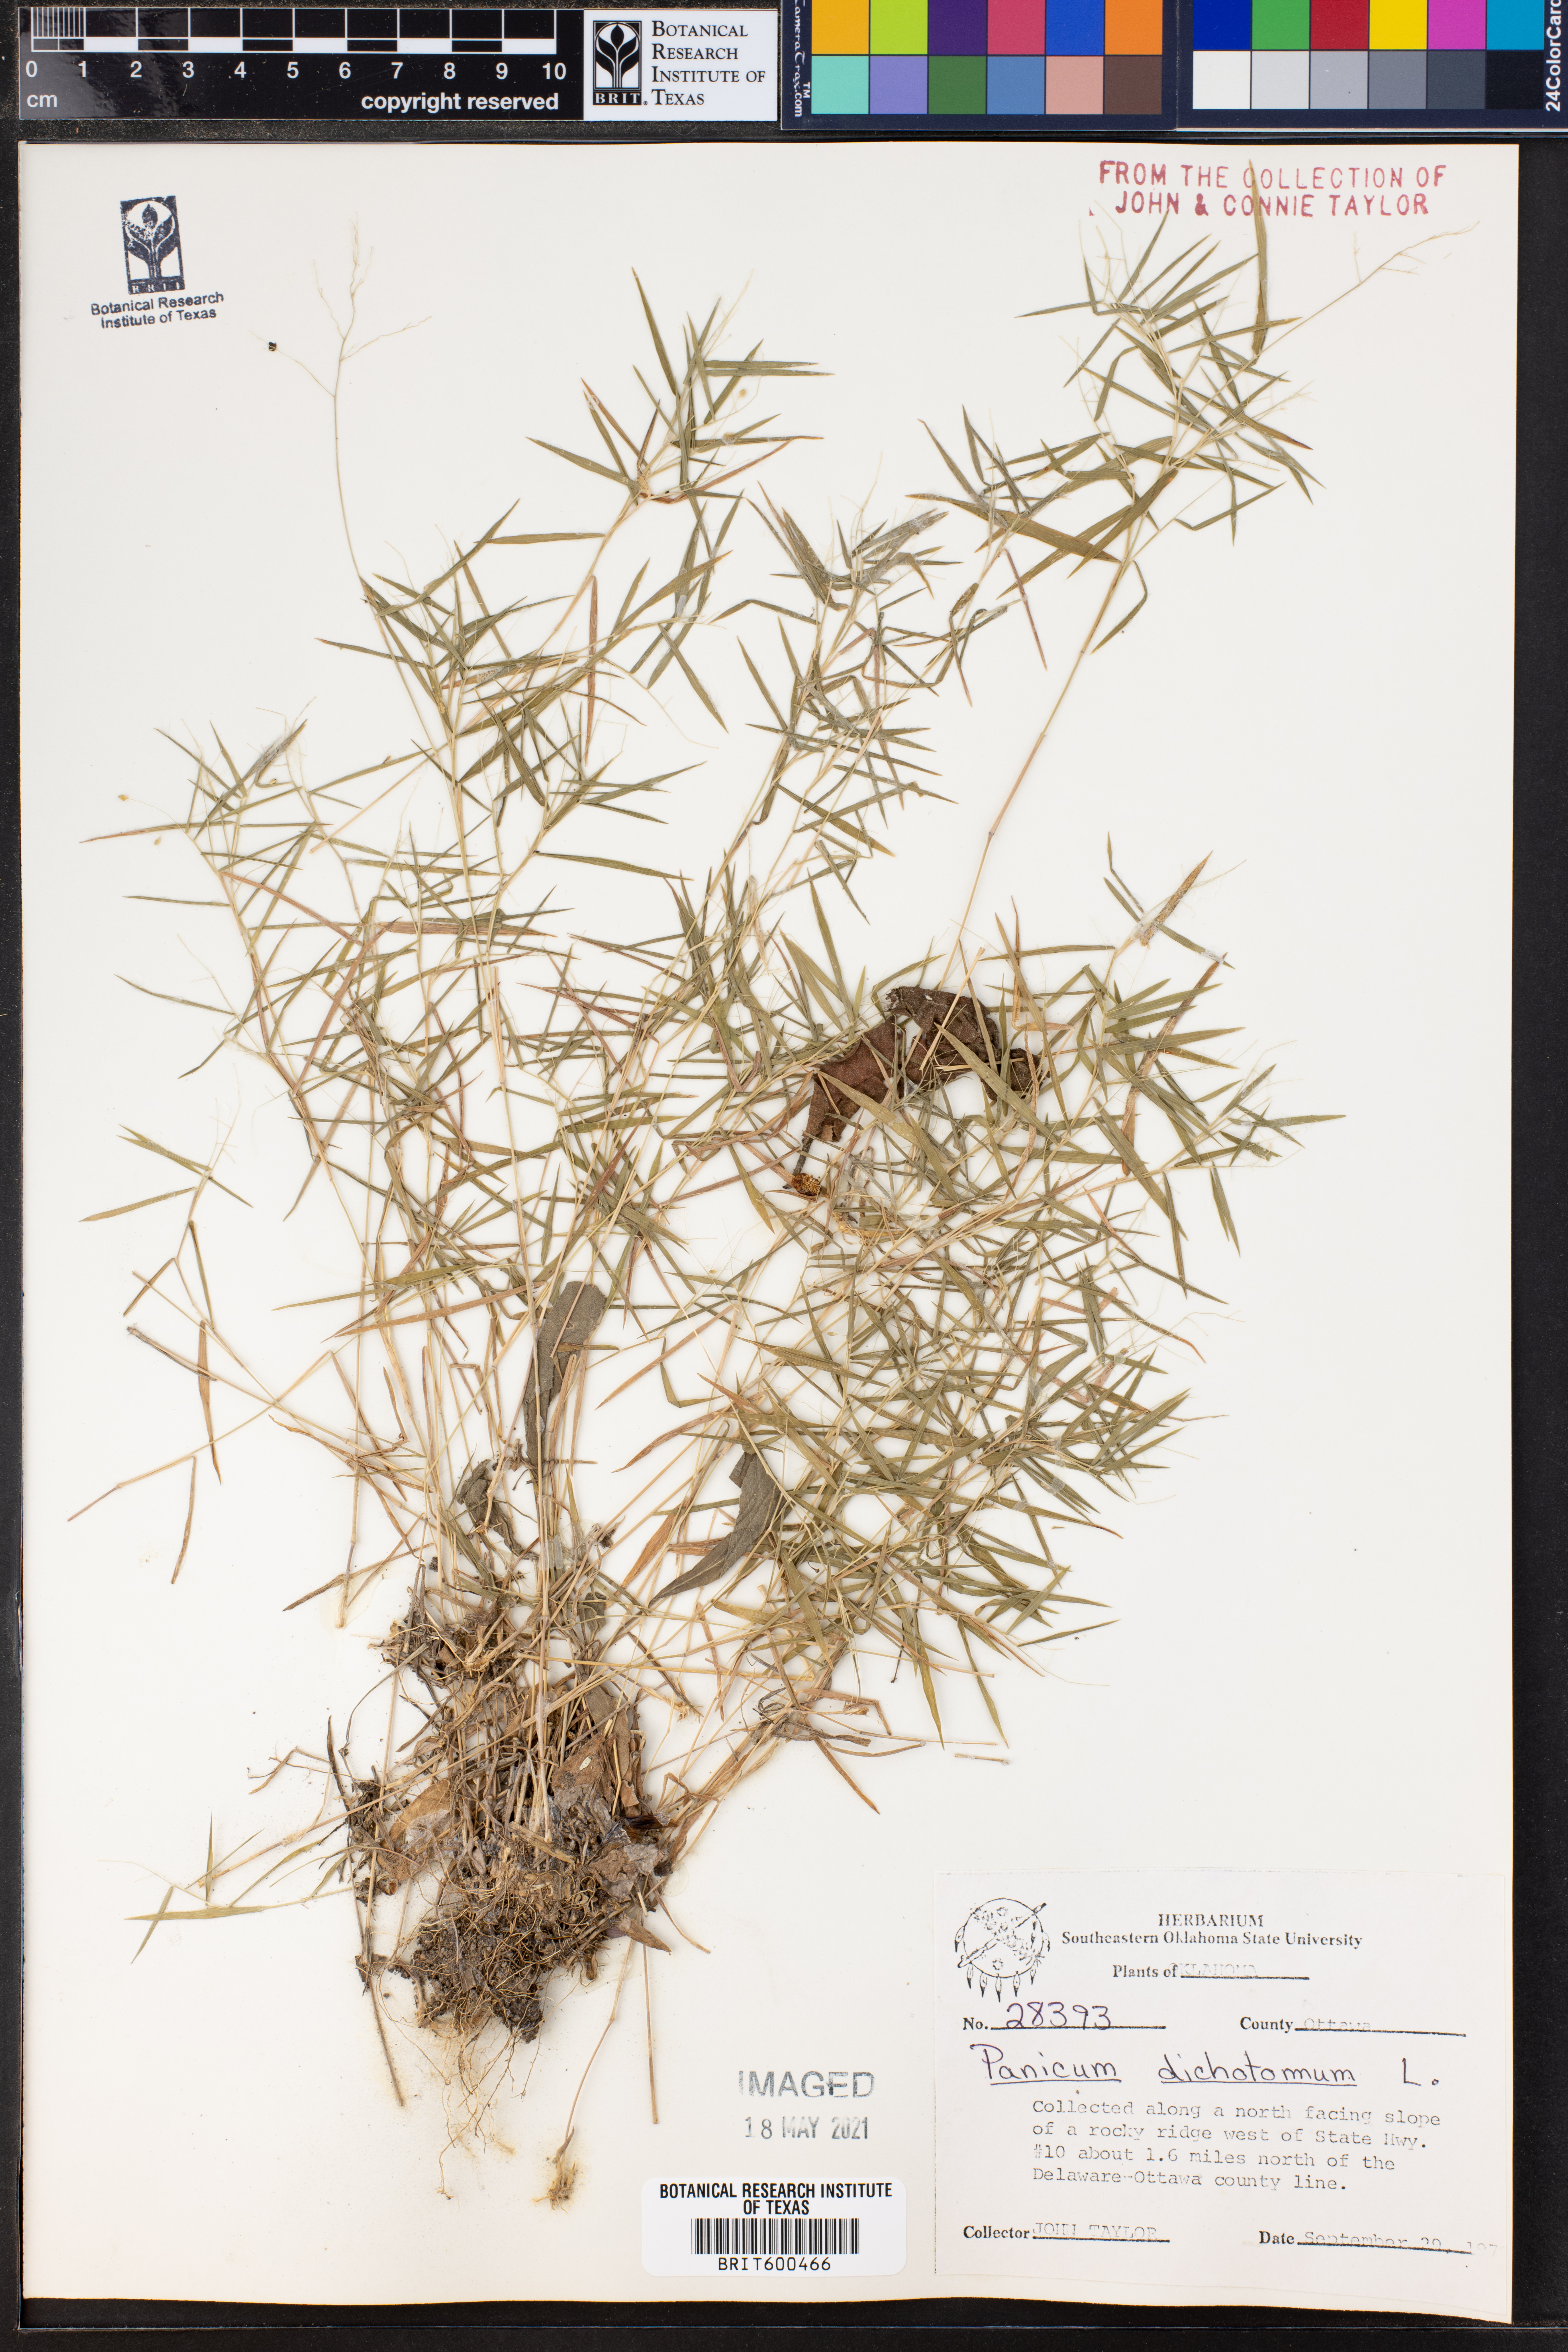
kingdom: Plantae
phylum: Tracheophyta
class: Liliopsida
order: Poales
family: Poaceae
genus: Dichanthelium
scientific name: Dichanthelium dichotomum
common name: Cypress panicgrass
